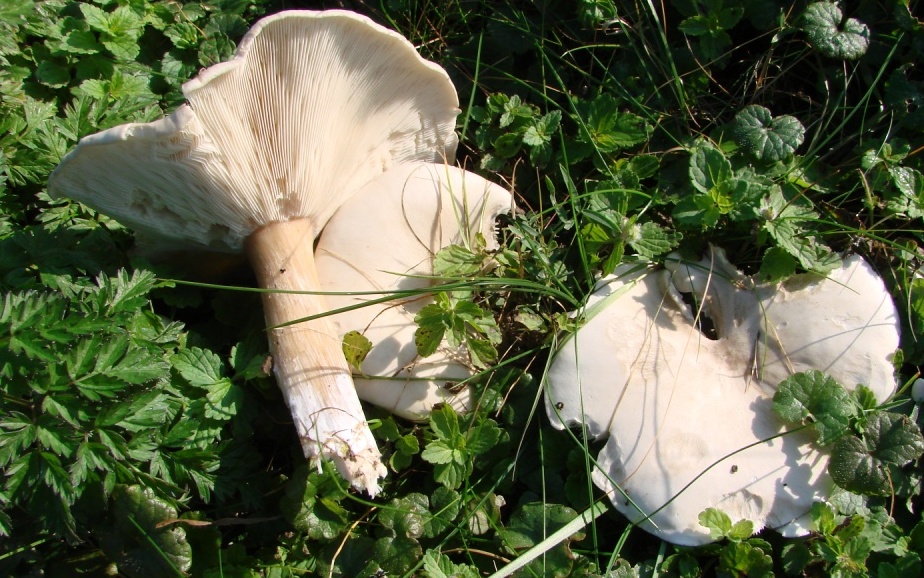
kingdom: Fungi
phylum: Basidiomycota
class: Agaricomycetes
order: Agaricales
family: Tricholomataceae
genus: Melanoleuca
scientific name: Melanoleuca rasilis
